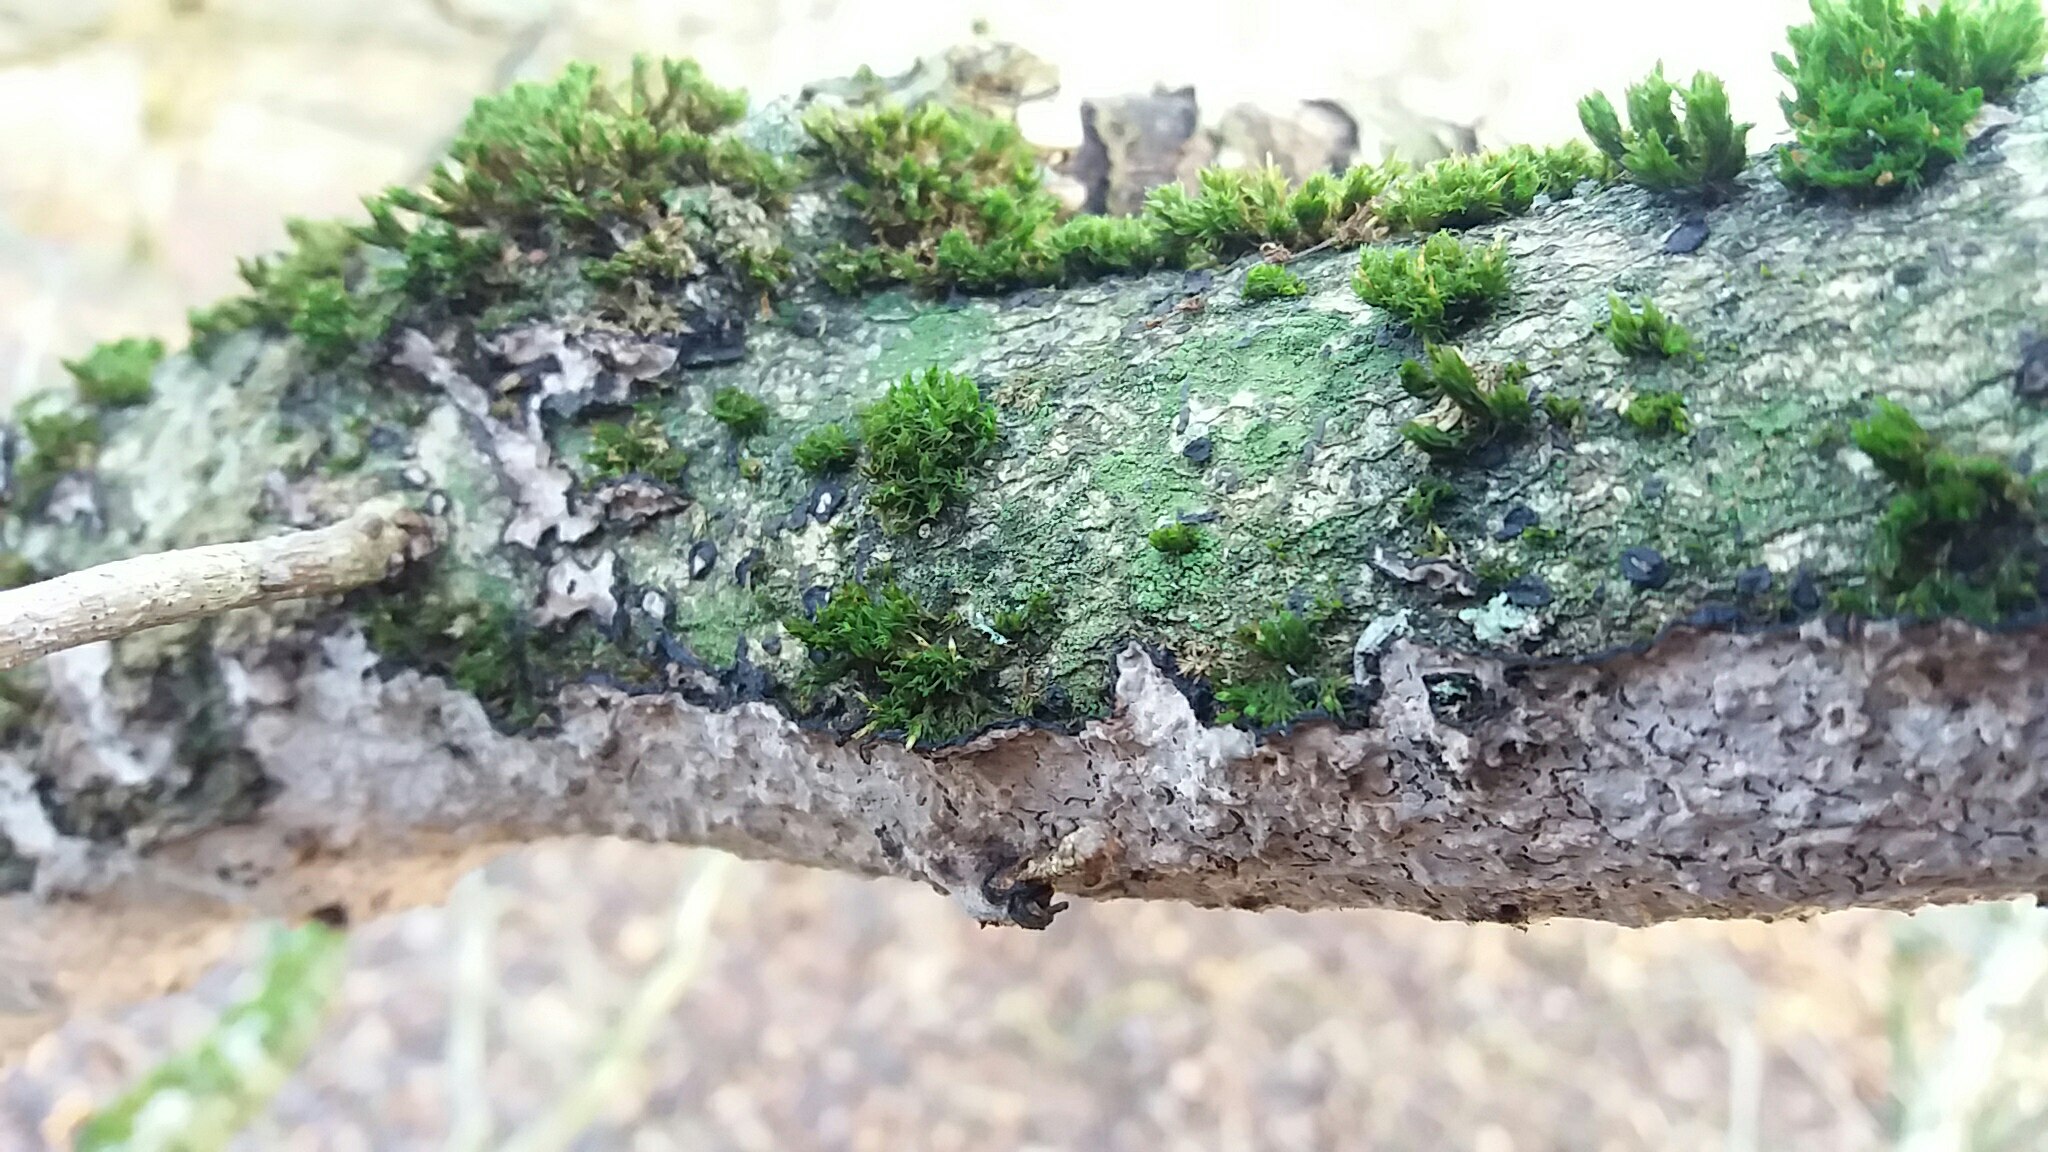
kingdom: Fungi
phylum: Basidiomycota
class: Agaricomycetes
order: Corticiales
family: Corticiaceae
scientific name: Corticiaceae
